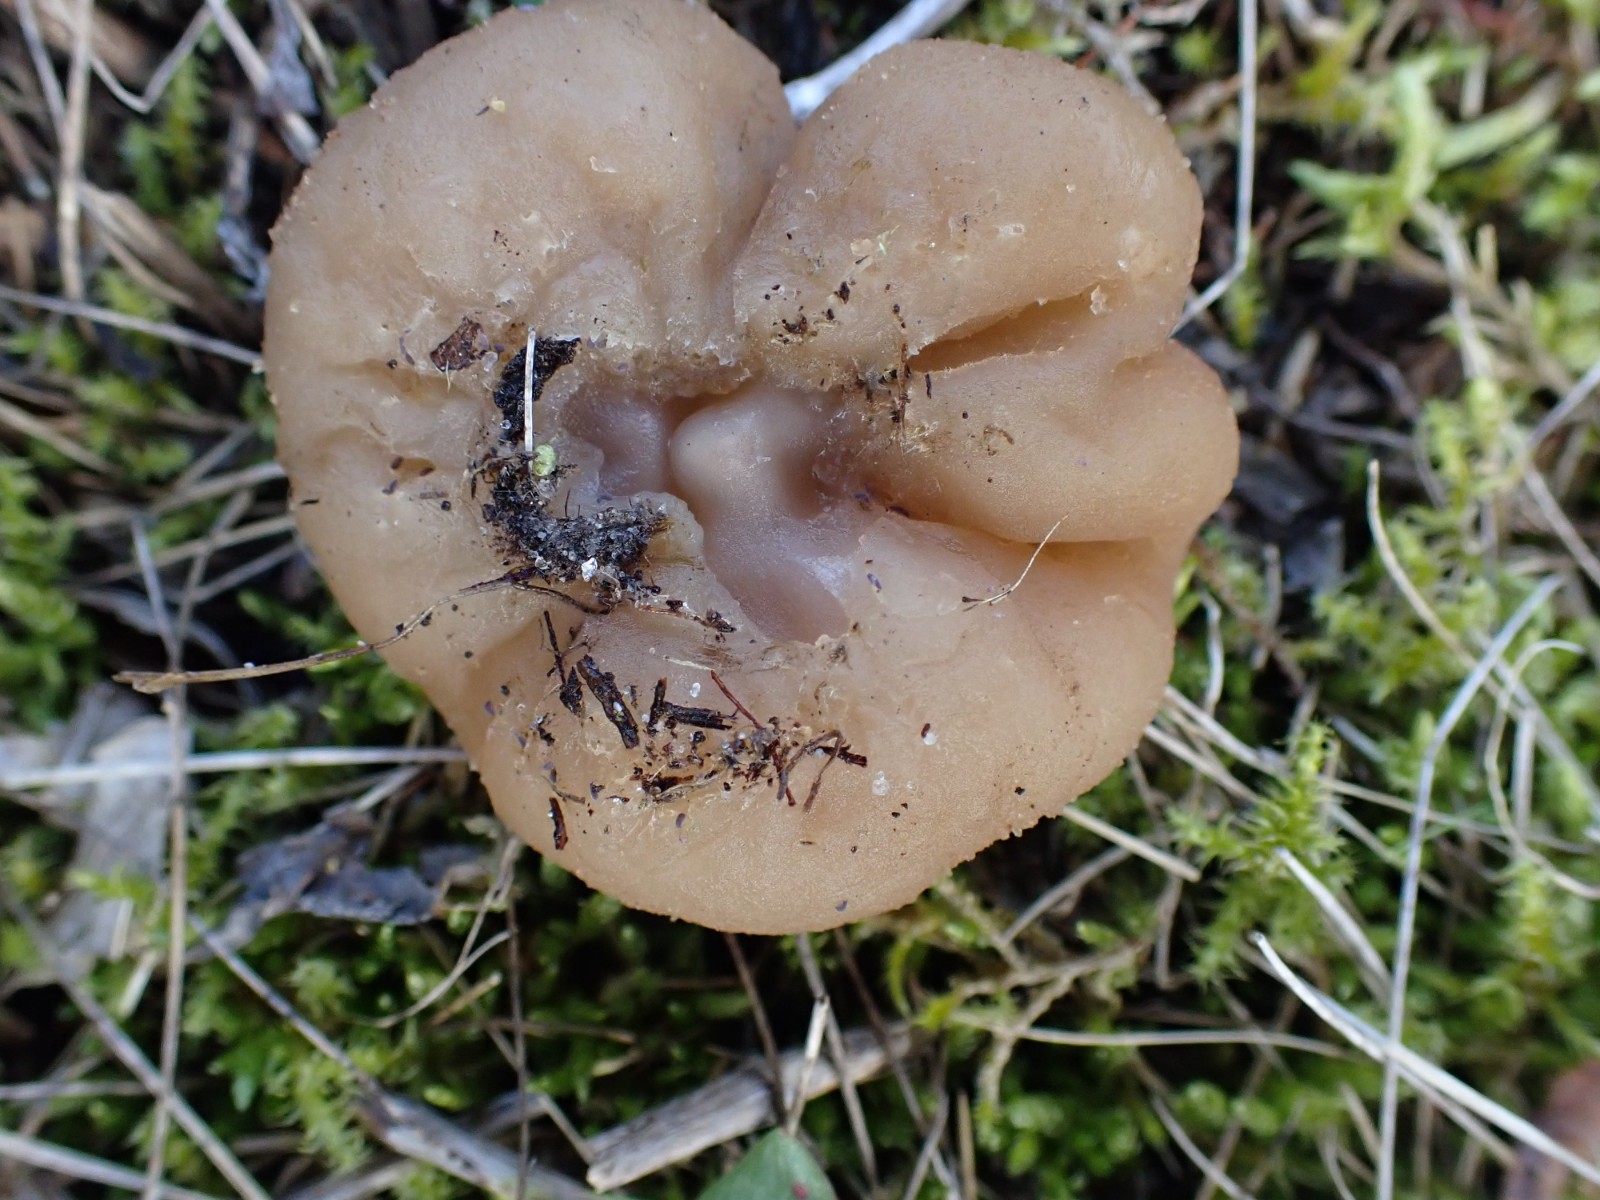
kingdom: Fungi
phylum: Ascomycota
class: Pezizomycetes
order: Pezizales
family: Pezizaceae
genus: Peziza
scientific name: Peziza
